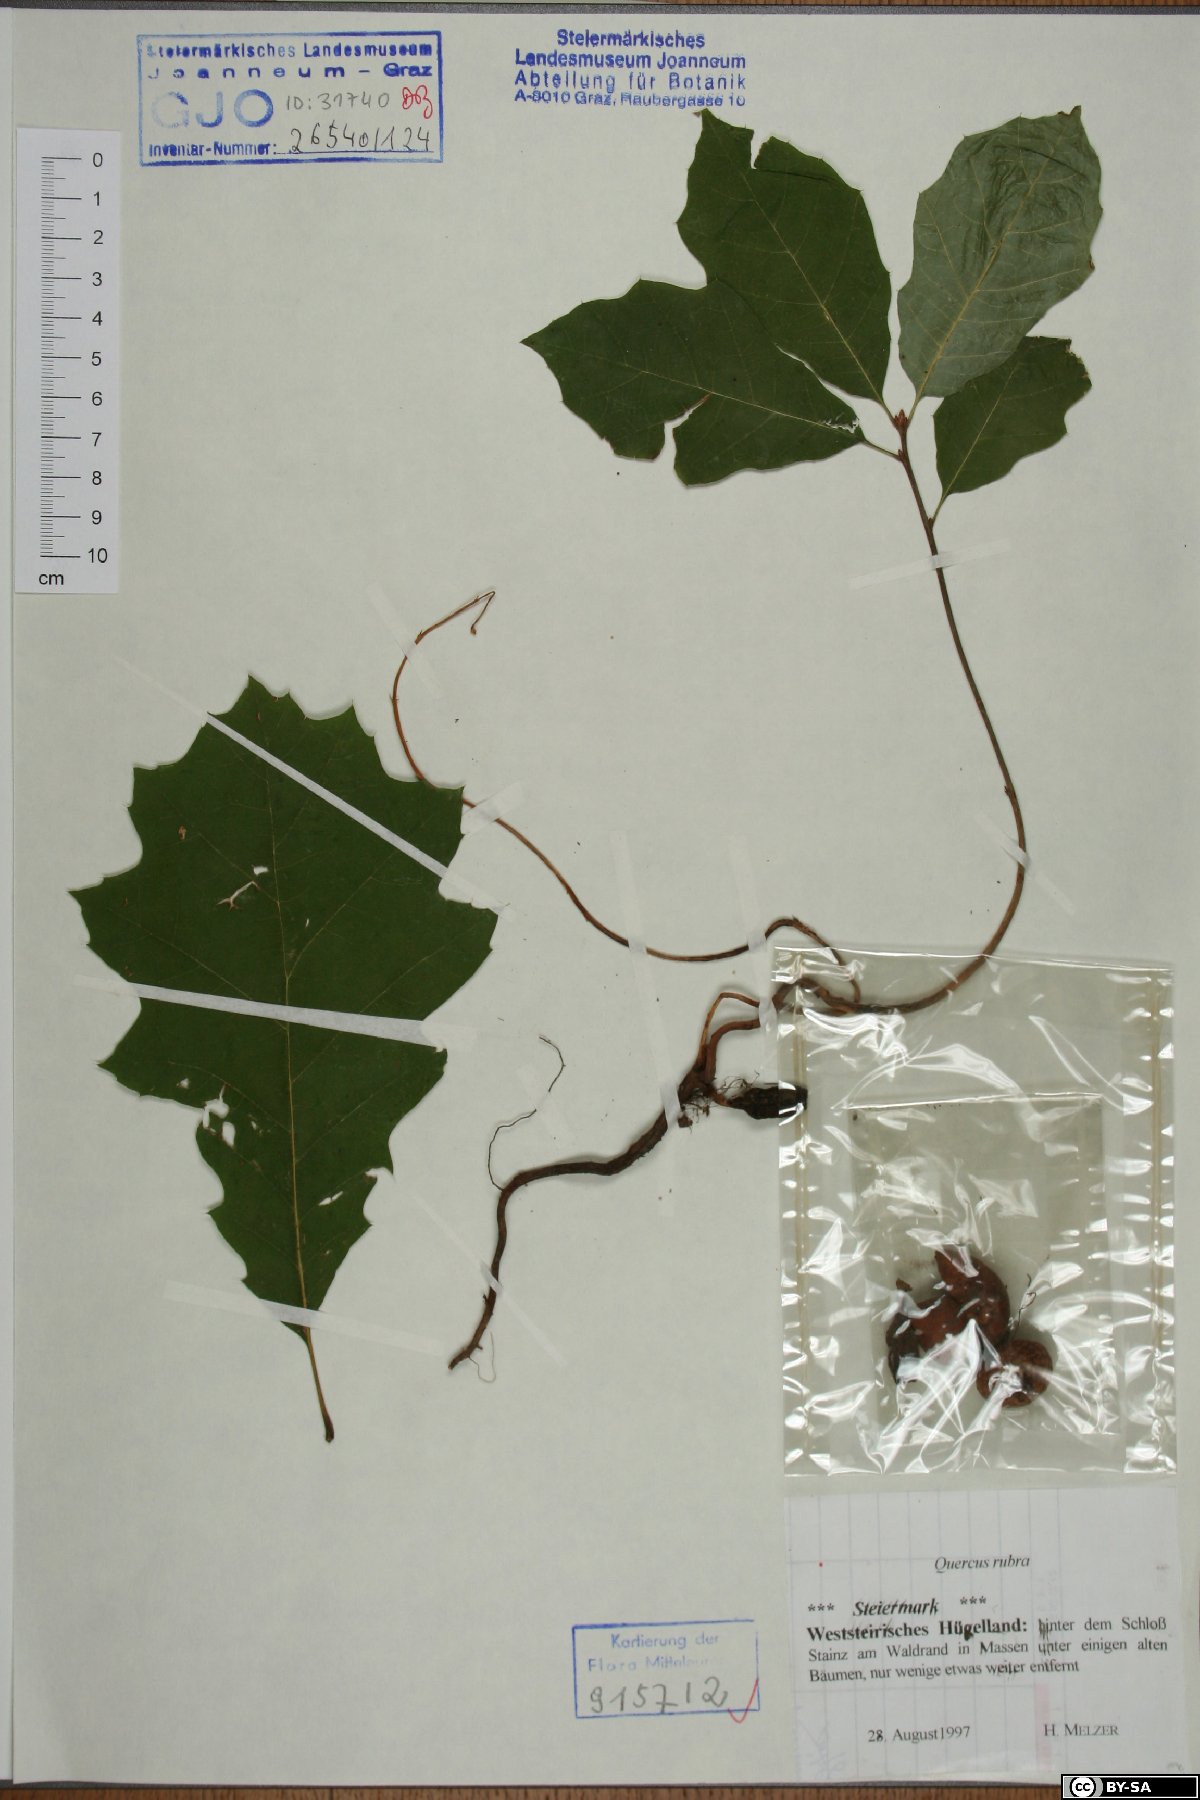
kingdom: Plantae
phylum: Tracheophyta
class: Magnoliopsida
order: Fagales
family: Fagaceae
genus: Quercus
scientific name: Quercus rubra
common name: Red oak
